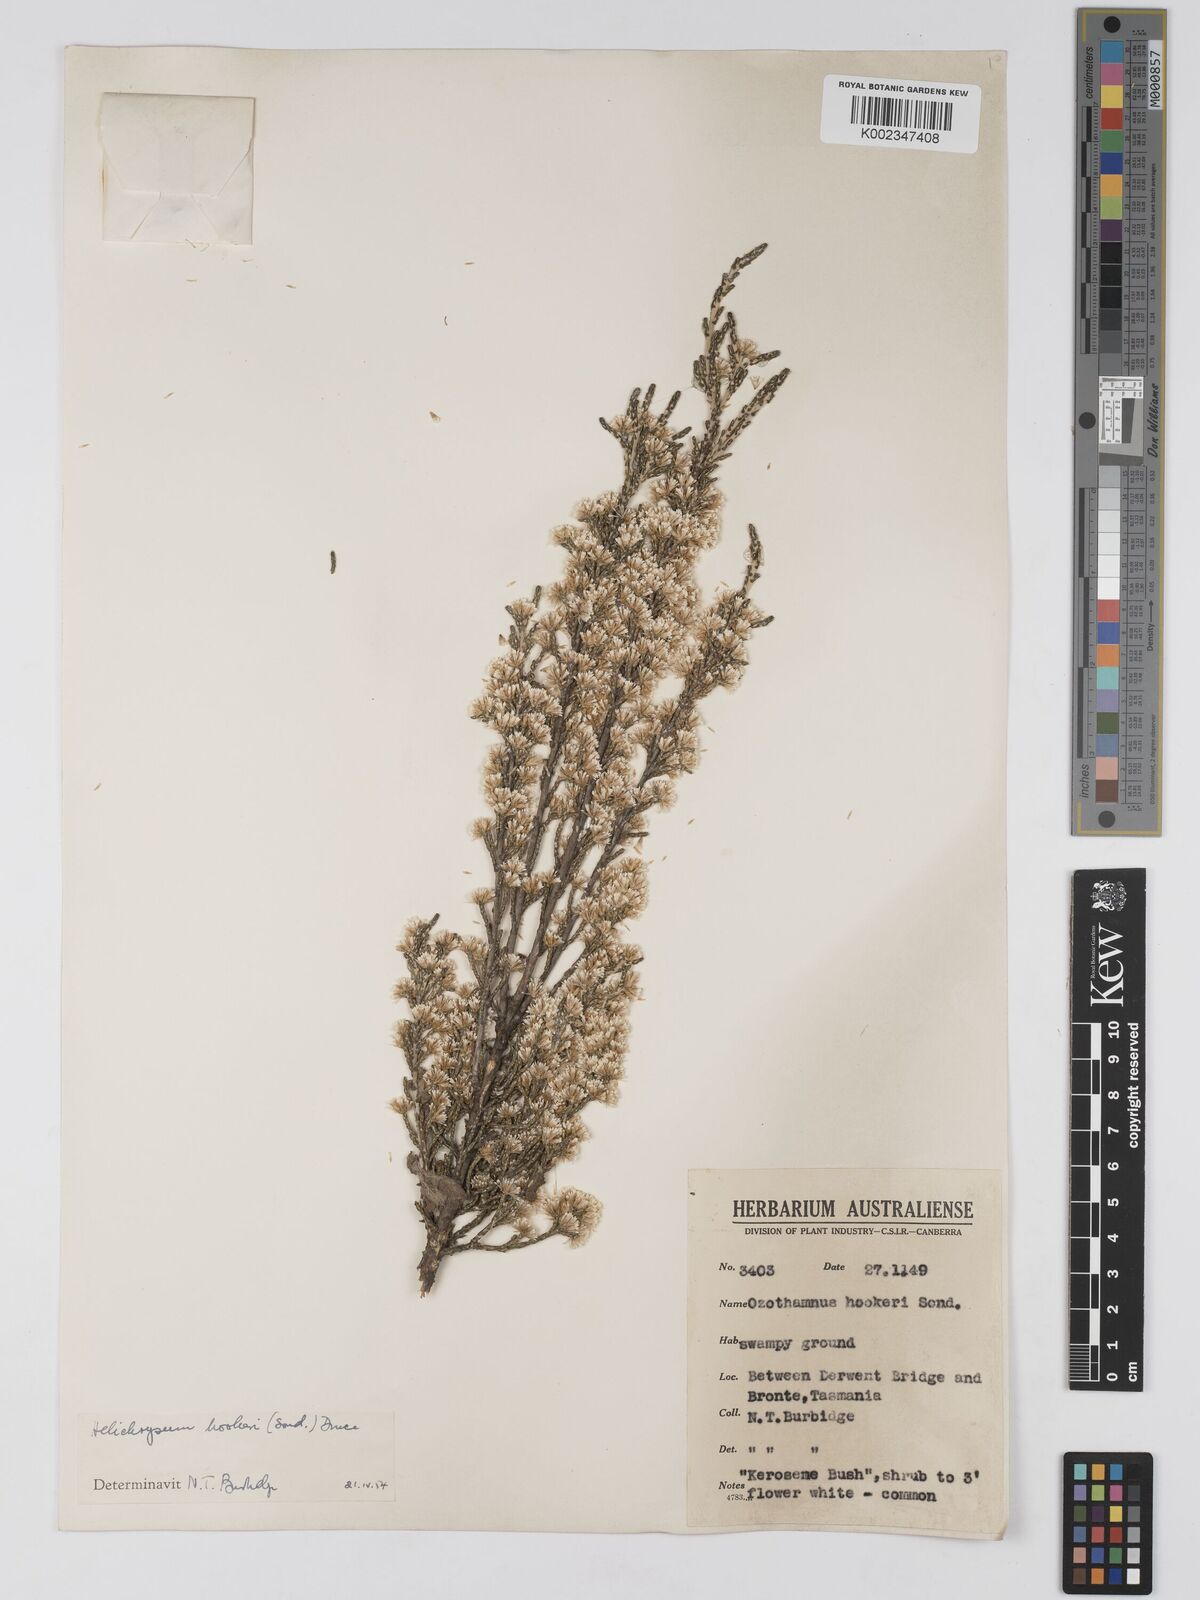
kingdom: Plantae
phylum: Tracheophyta
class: Magnoliopsida
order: Asterales
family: Asteraceae
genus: Ozothamnus
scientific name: Ozothamnus hookeri
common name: Kerosene-bush
